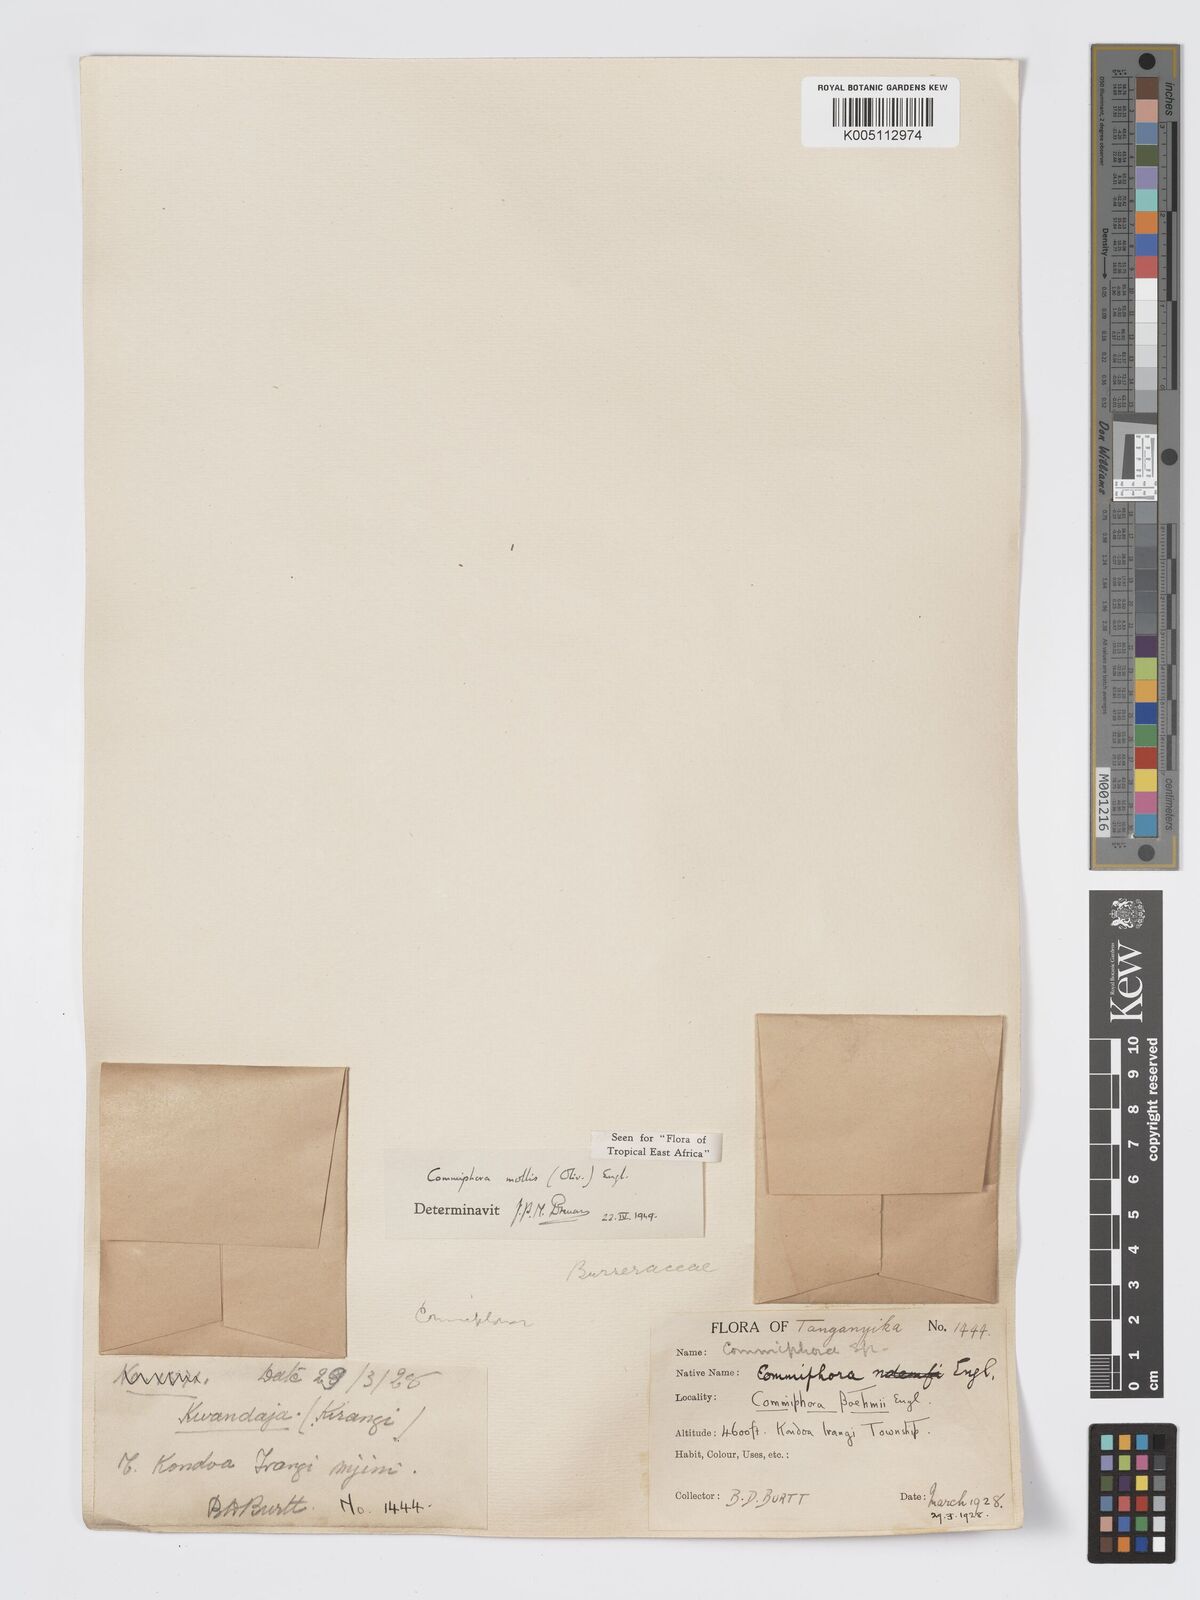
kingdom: Plantae
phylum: Tracheophyta
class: Magnoliopsida
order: Sapindales
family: Burseraceae
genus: Commiphora
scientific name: Commiphora
